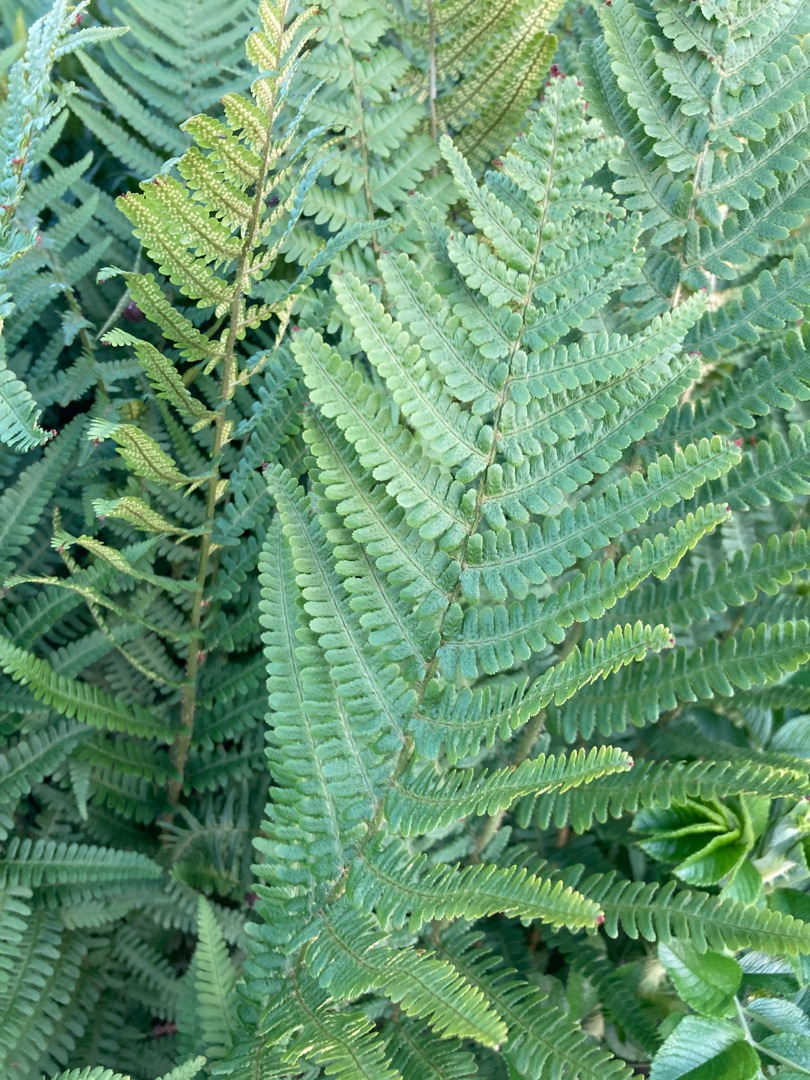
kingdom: Plantae
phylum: Tracheophyta
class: Polypodiopsida
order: Polypodiales
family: Dryopteridaceae
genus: Dryopteris
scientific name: Dryopteris filix-mas
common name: Almindelig mangeløv
